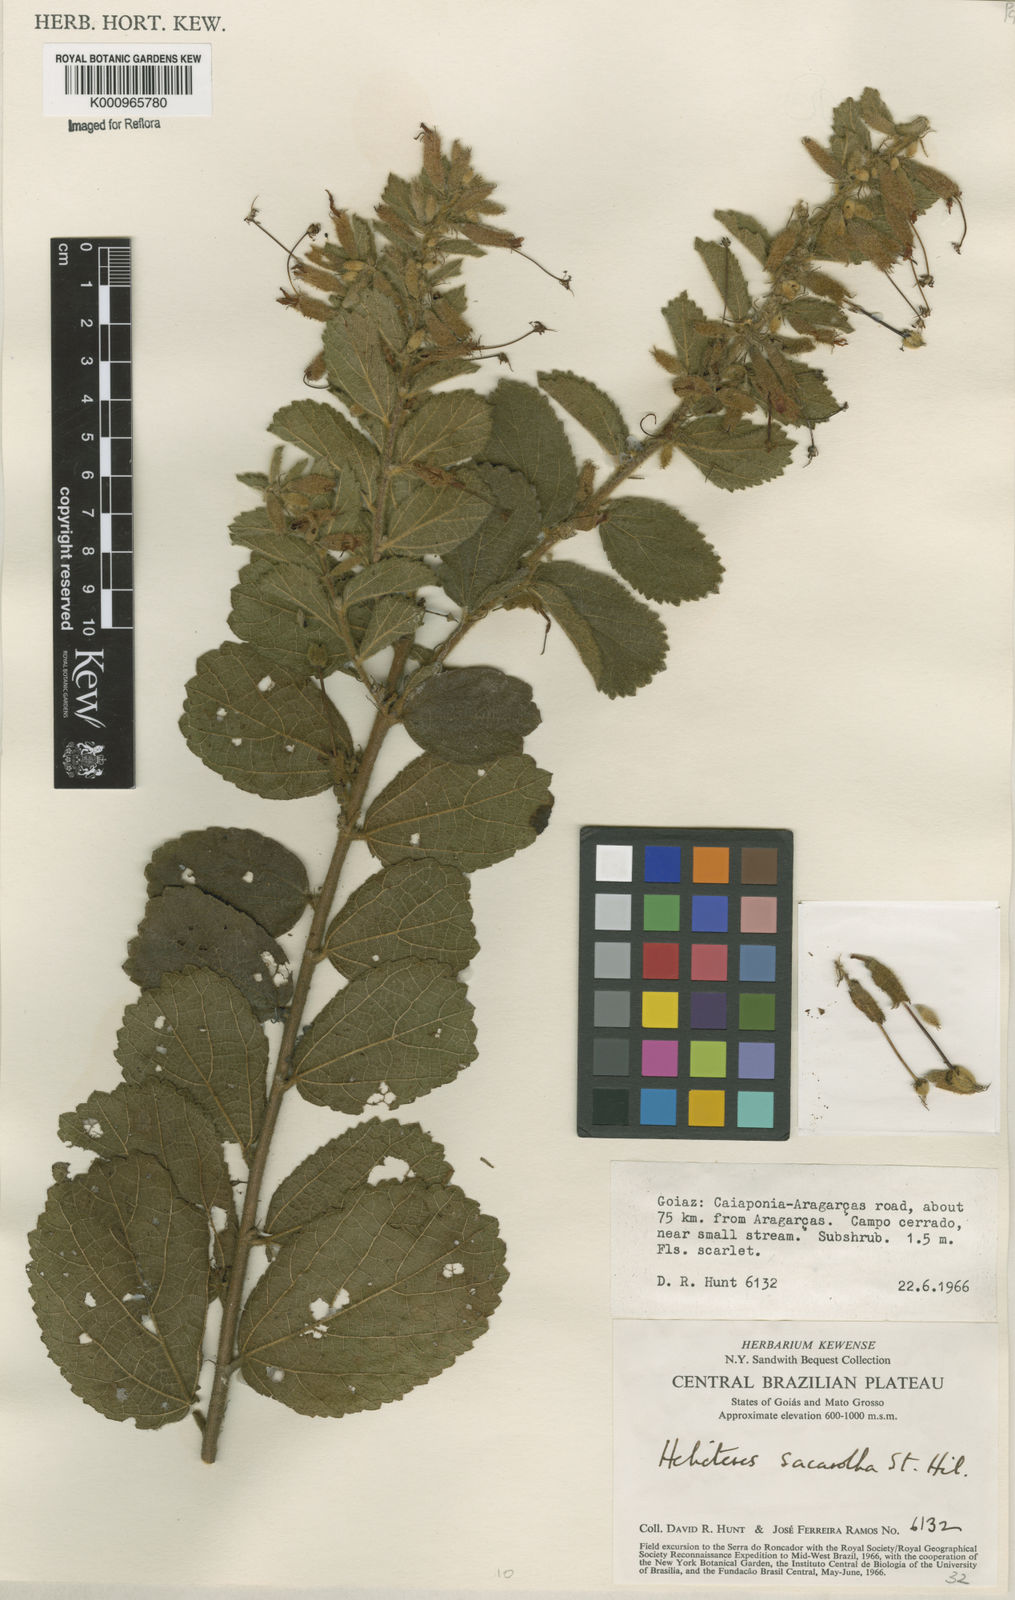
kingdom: Plantae
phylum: Tracheophyta
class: Magnoliopsida
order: Malvales
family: Malvaceae
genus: Helicteres
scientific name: Helicteres
